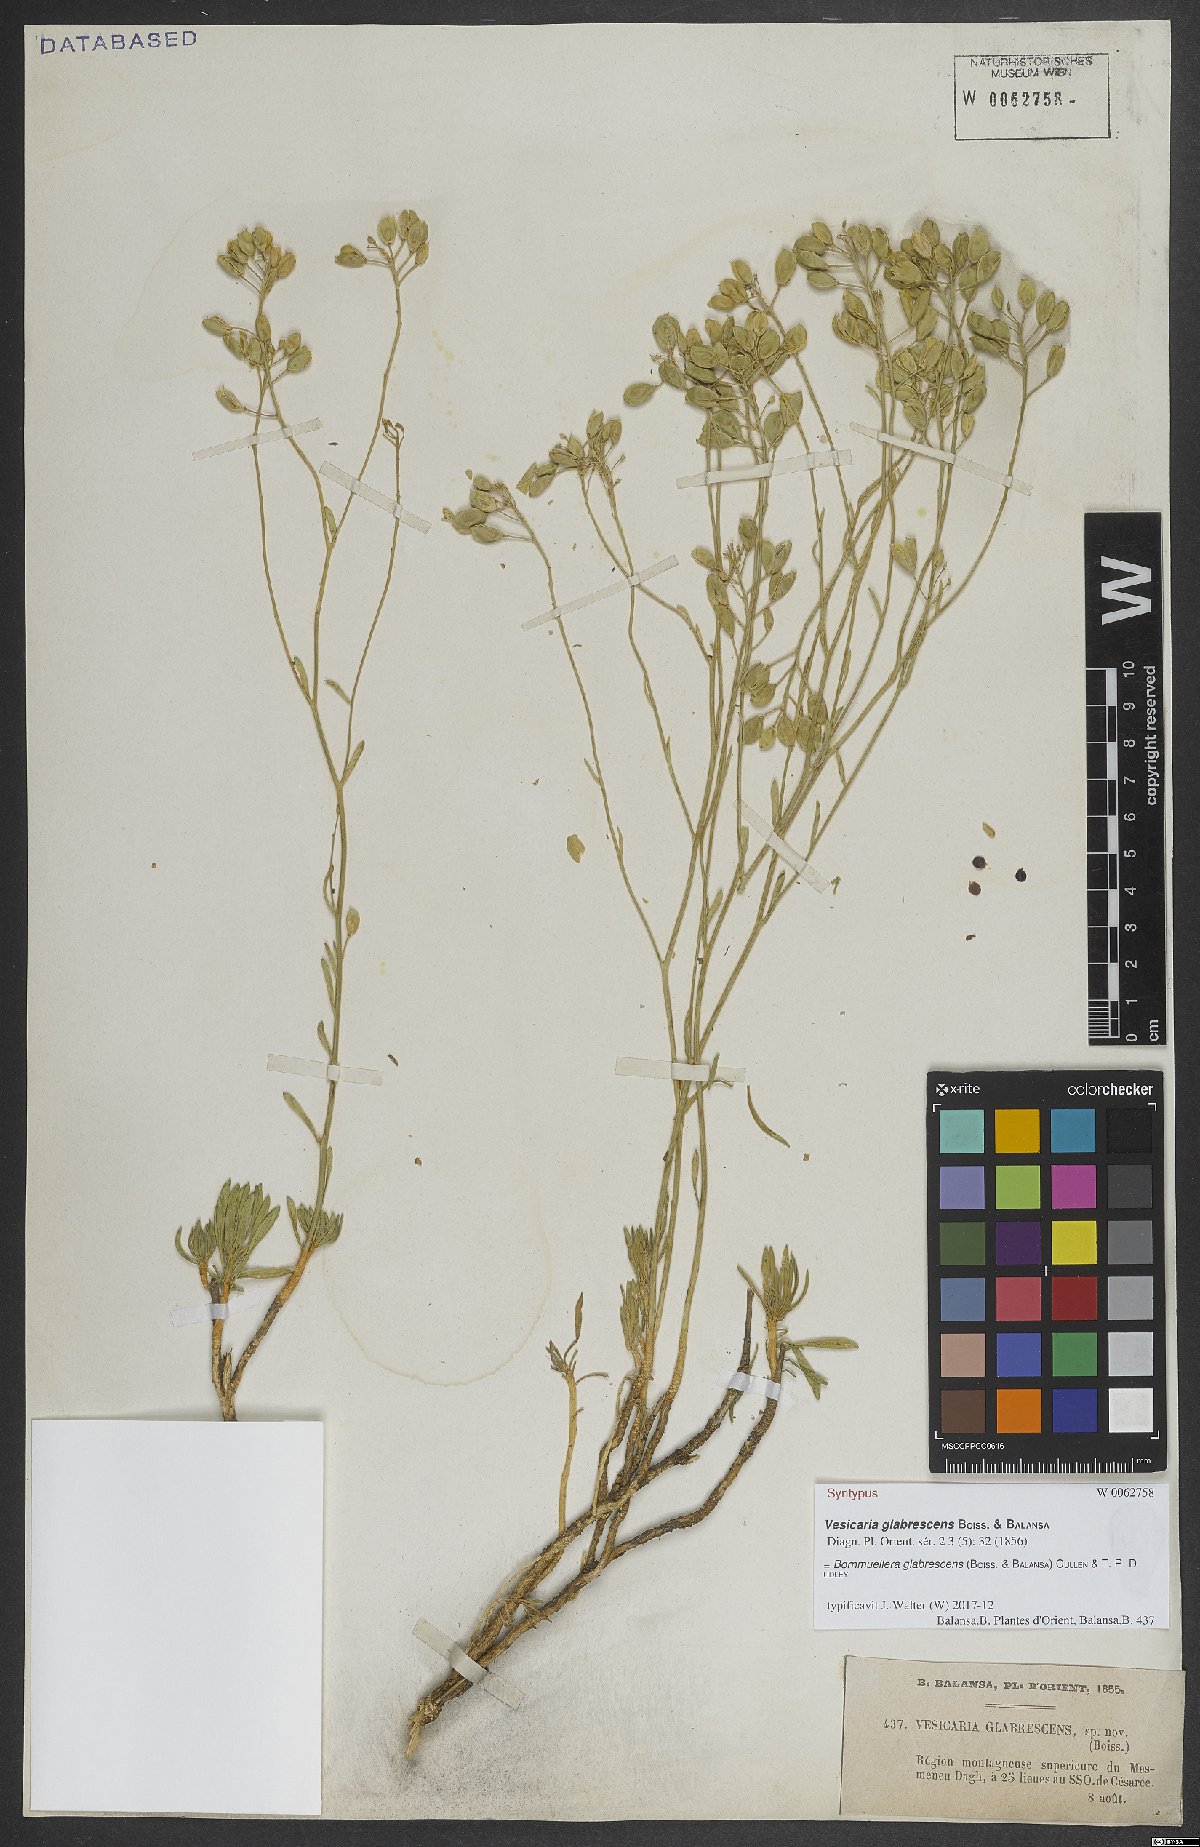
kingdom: Plantae
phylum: Tracheophyta
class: Magnoliopsida
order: Brassicales
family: Brassicaceae
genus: Bornmuellera
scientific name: Bornmuellera glabrescens
